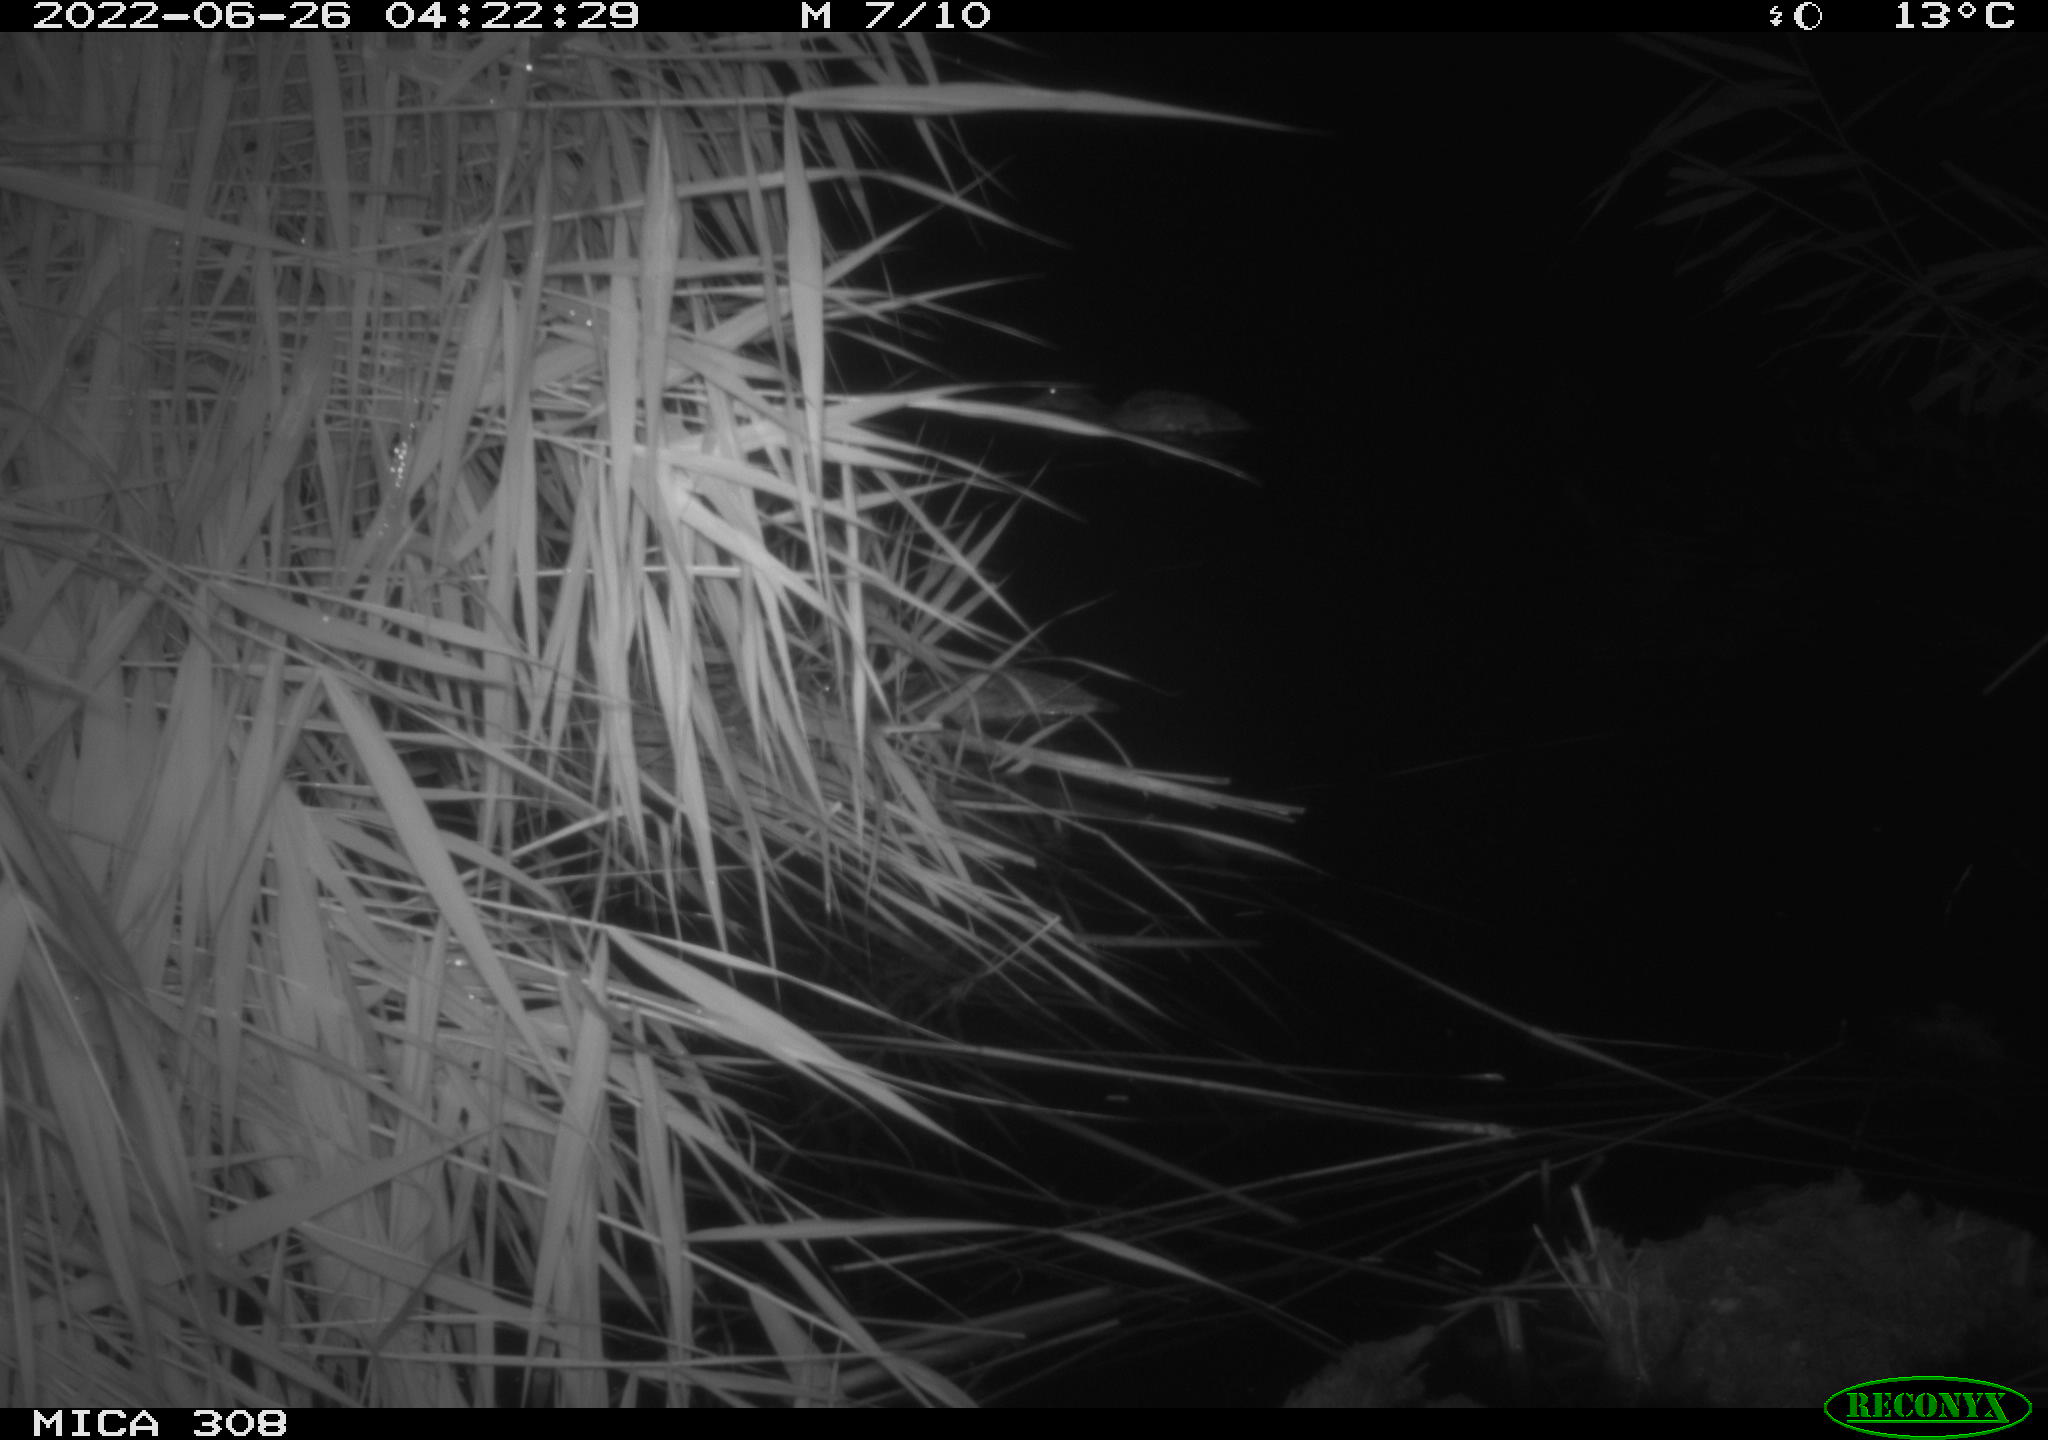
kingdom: Animalia
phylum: Chordata
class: Aves
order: Anseriformes
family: Anatidae
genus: Anas
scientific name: Anas platyrhynchos
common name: Mallard
